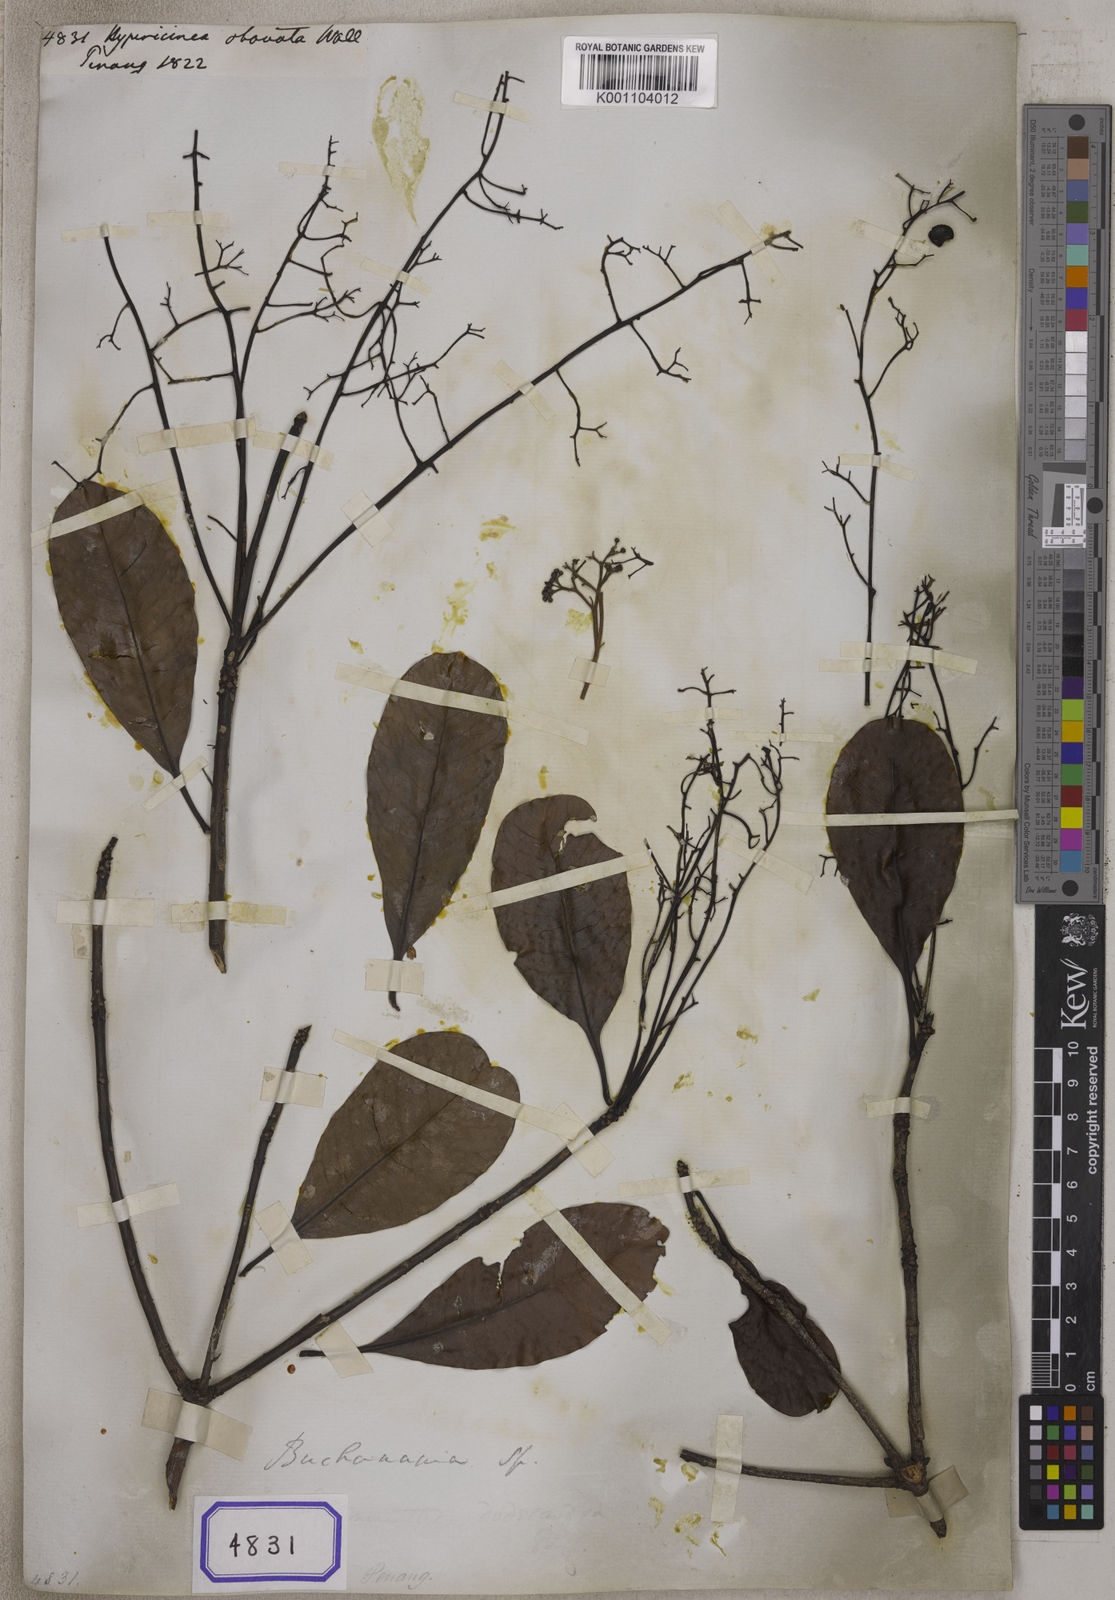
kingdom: Plantae
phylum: Tracheophyta
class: Magnoliopsida
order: Sapindales
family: Anacardiaceae
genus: Buchanania
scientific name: Buchanania
